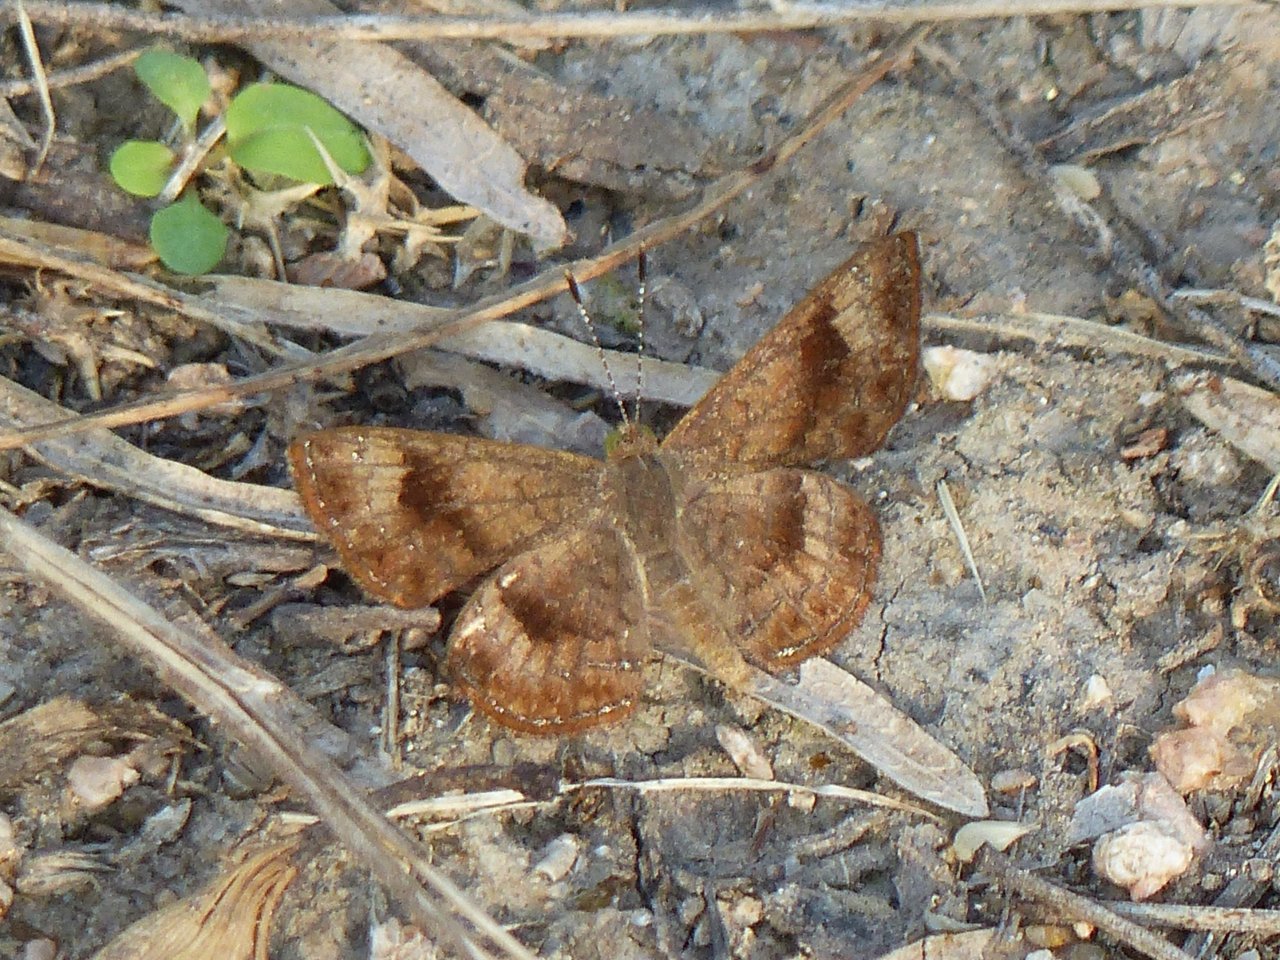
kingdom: Animalia
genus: Calephelis
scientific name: Calephelis nemesis
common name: Fatal Metalmark
